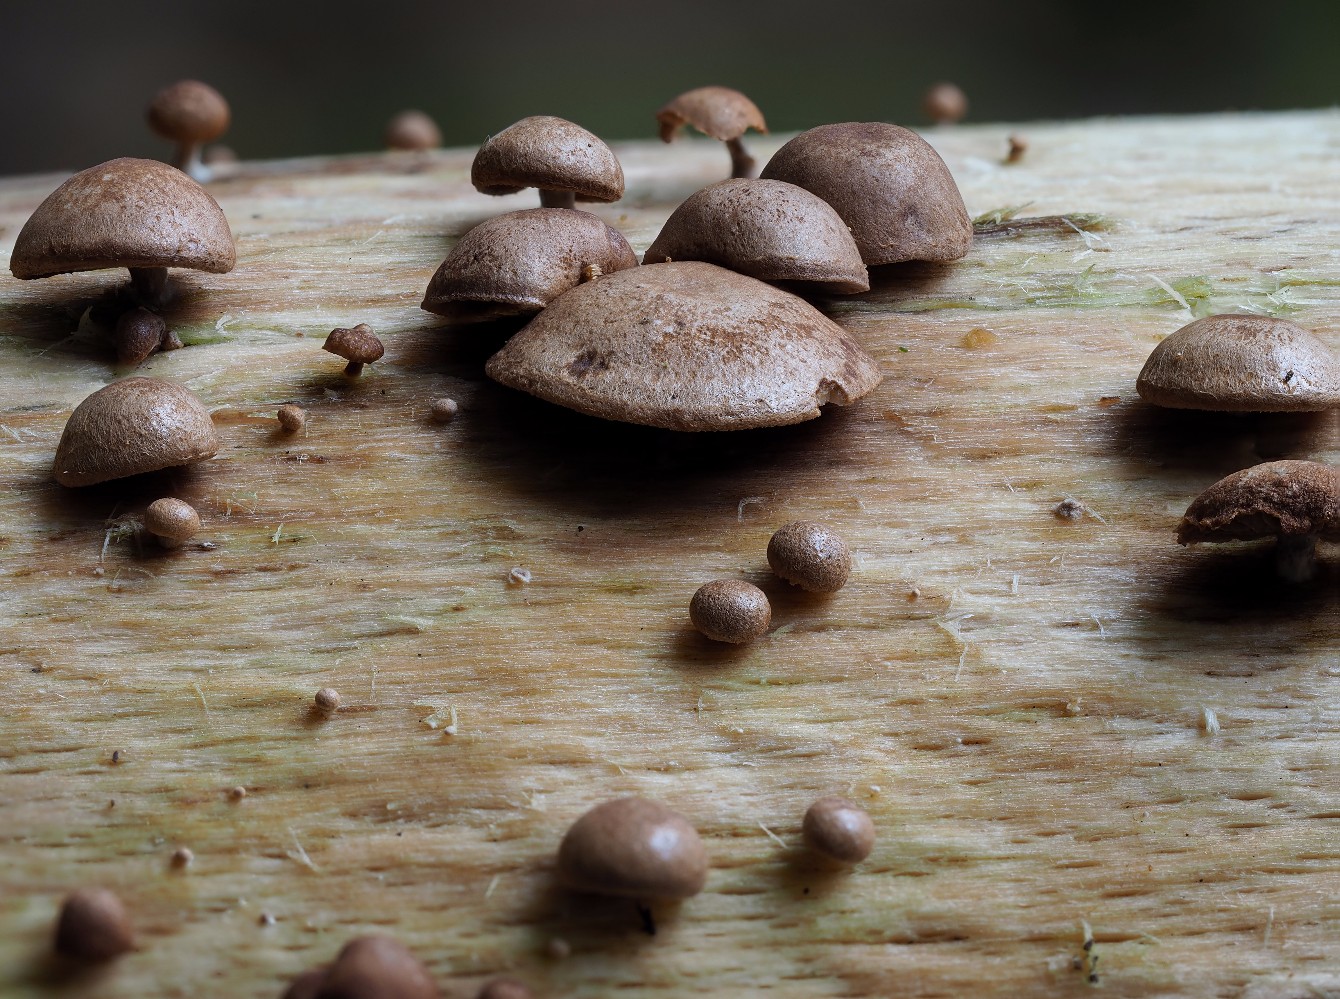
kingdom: Fungi
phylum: Basidiomycota
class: Agaricomycetes
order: Agaricales
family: Strophariaceae
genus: Deconica
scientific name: Deconica horizontalis
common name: ved-stråhat
